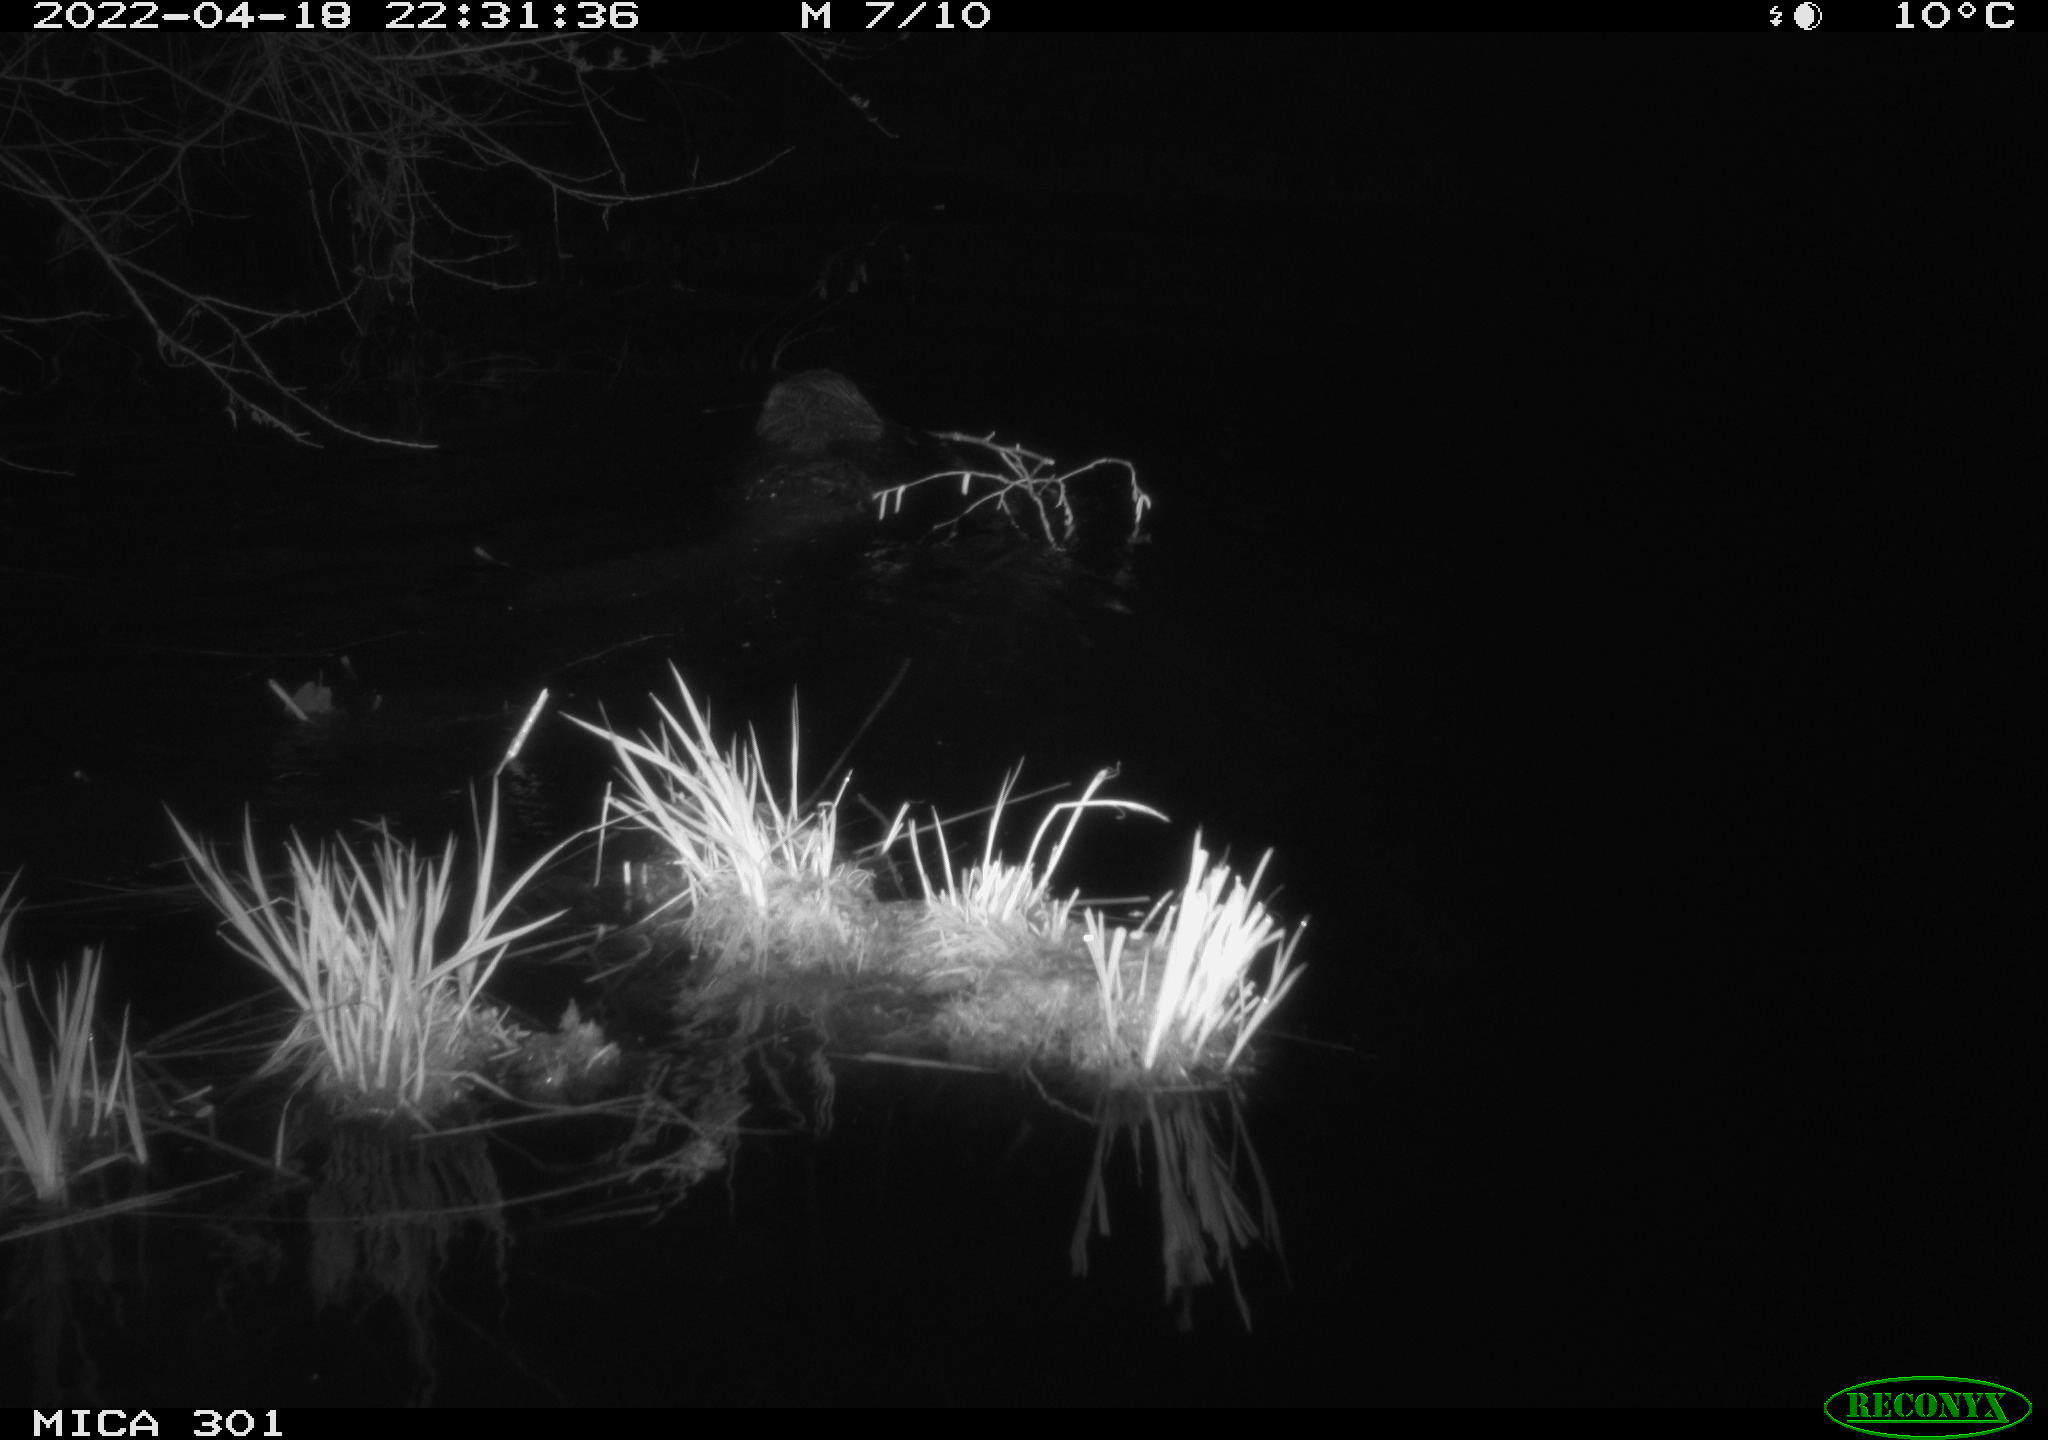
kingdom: Animalia
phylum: Chordata
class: Mammalia
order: Rodentia
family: Castoridae
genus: Castor
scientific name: Castor fiber
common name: Eurasian beaver
